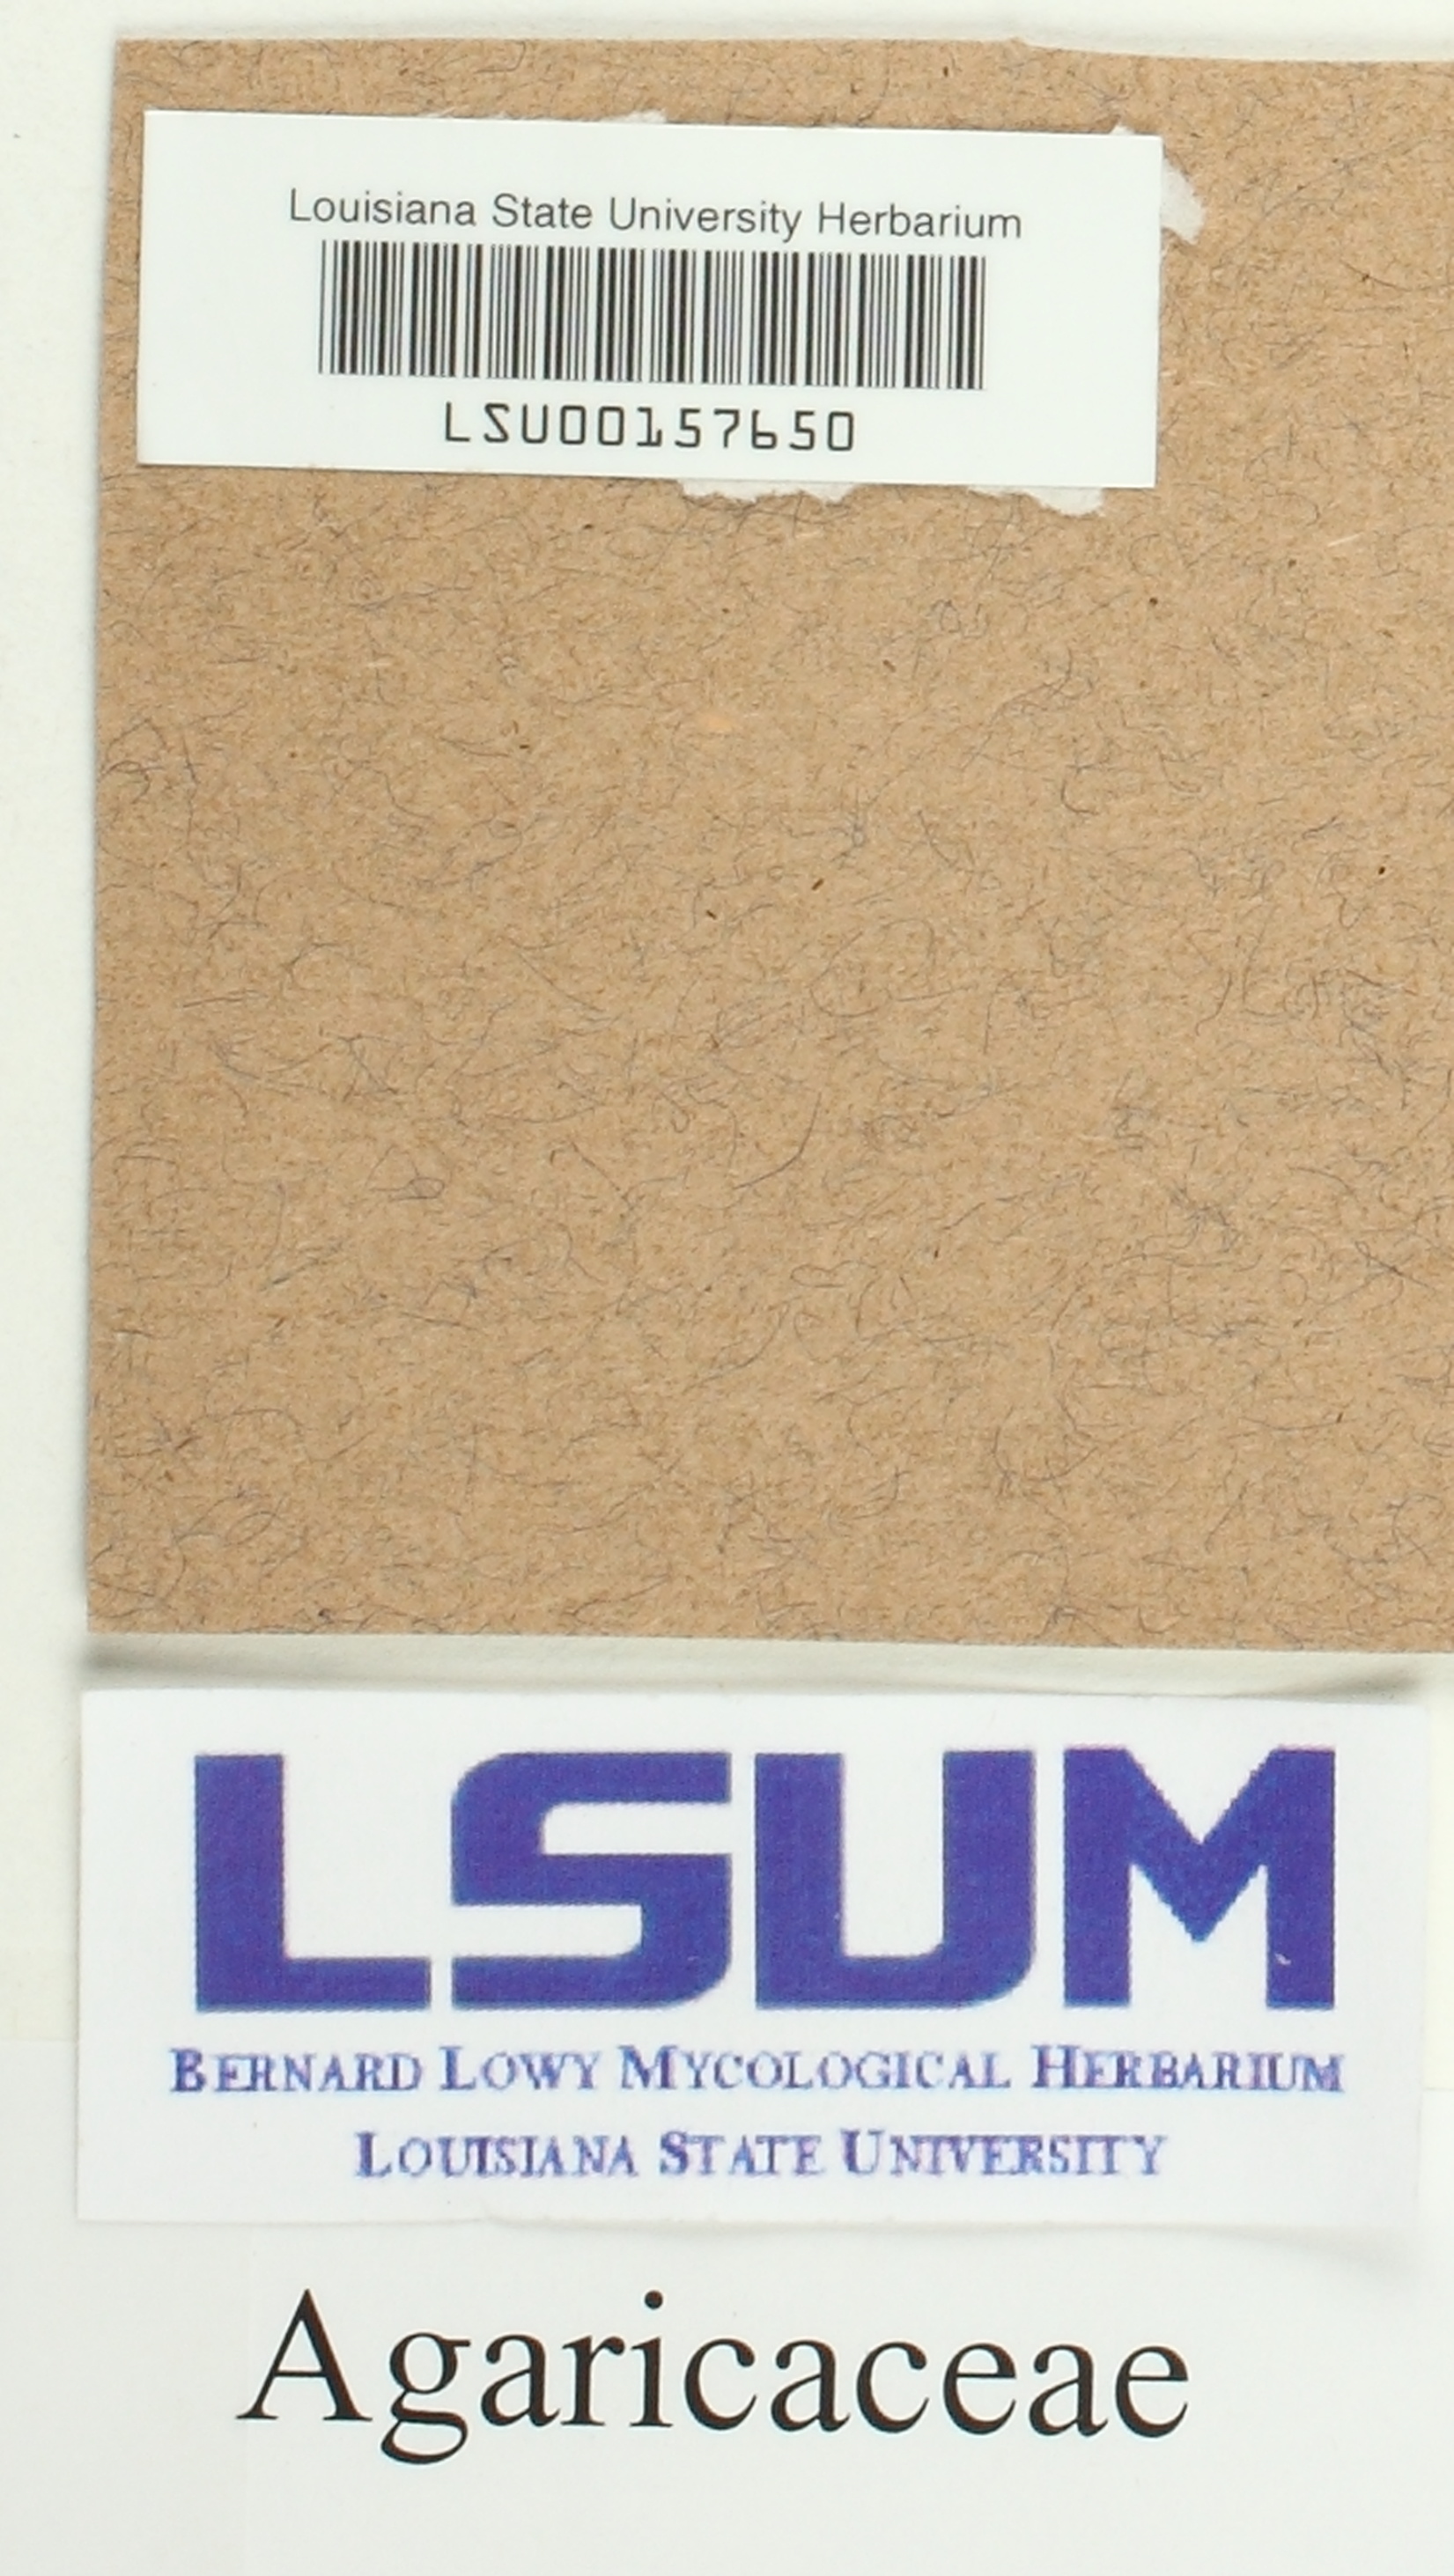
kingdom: Fungi
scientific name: Fungi
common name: Fungi
